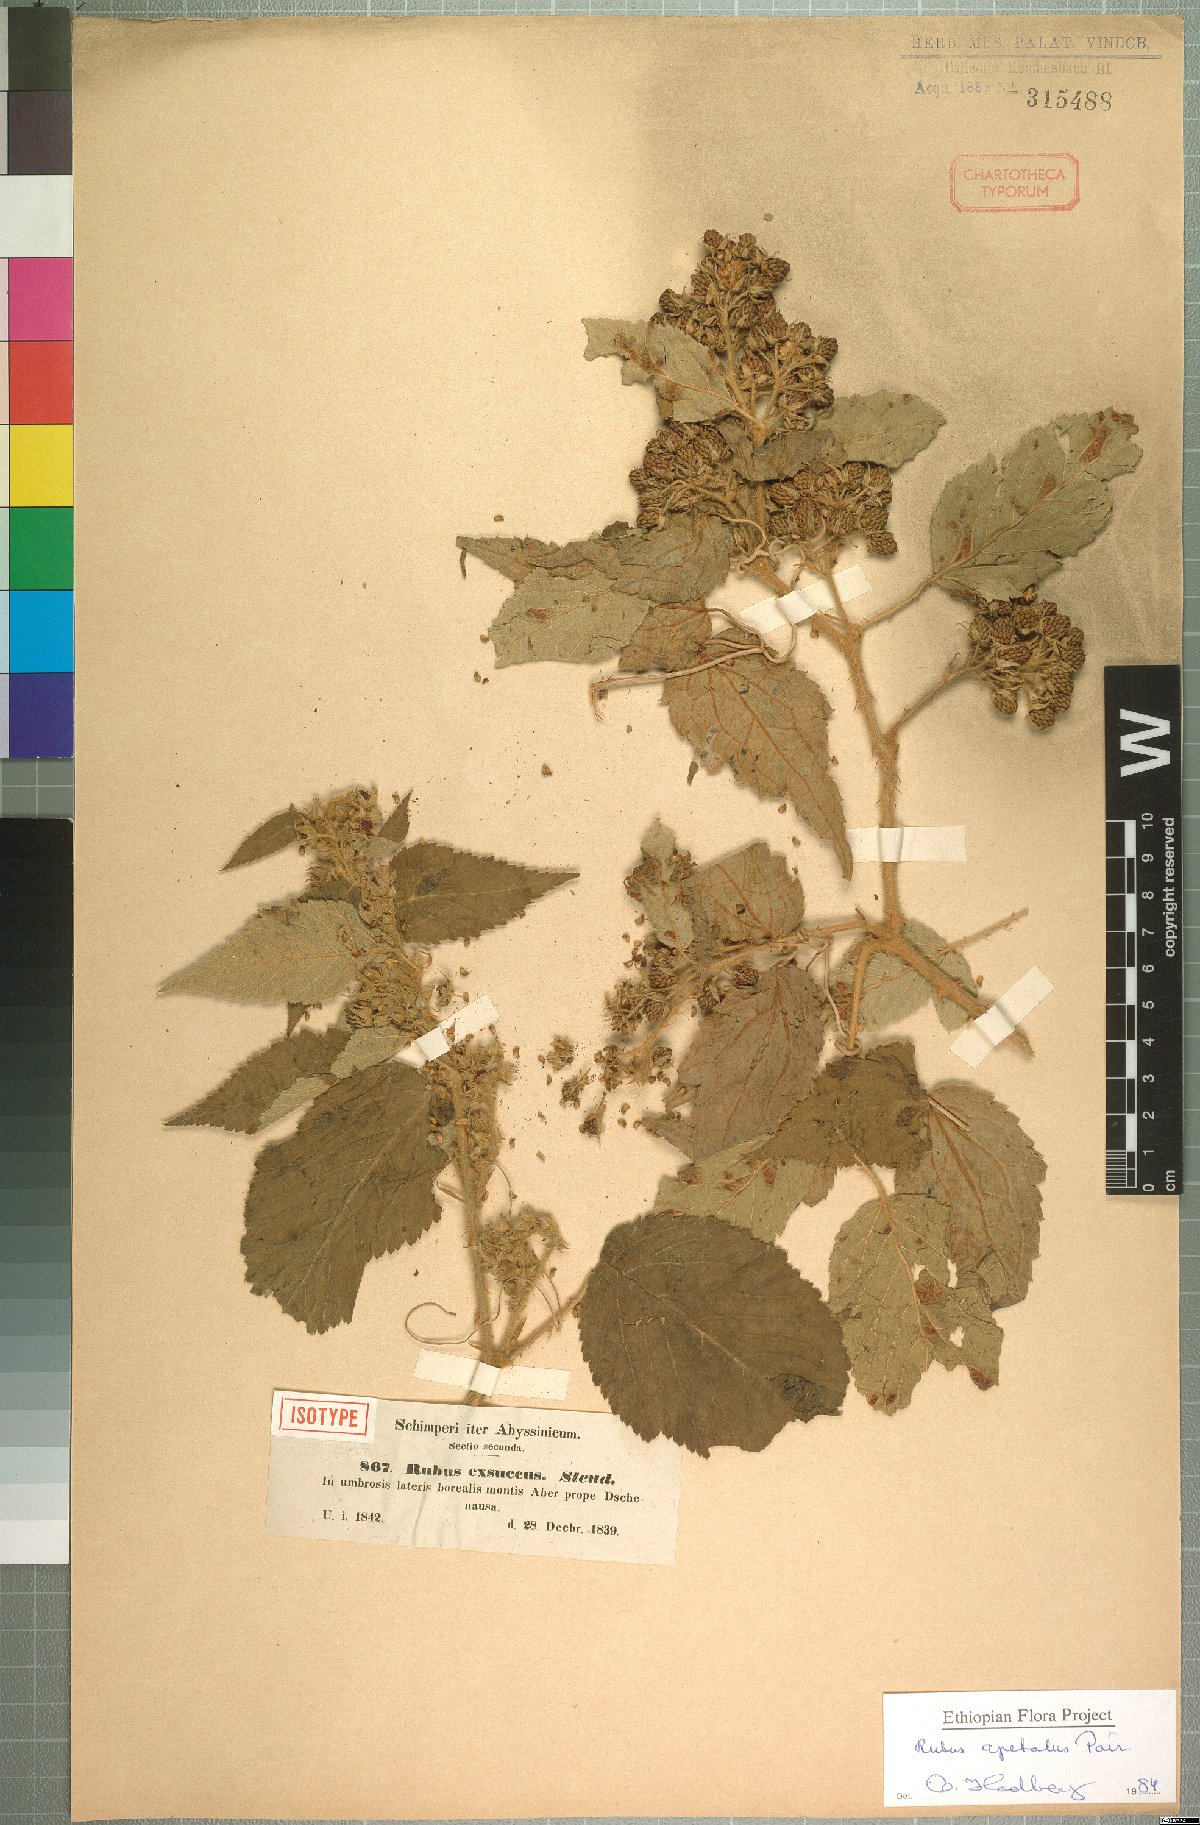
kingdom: Plantae
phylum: Tracheophyta
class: Magnoliopsida
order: Rosales
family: Rosaceae
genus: Rubus
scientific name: Rubus apetalus
